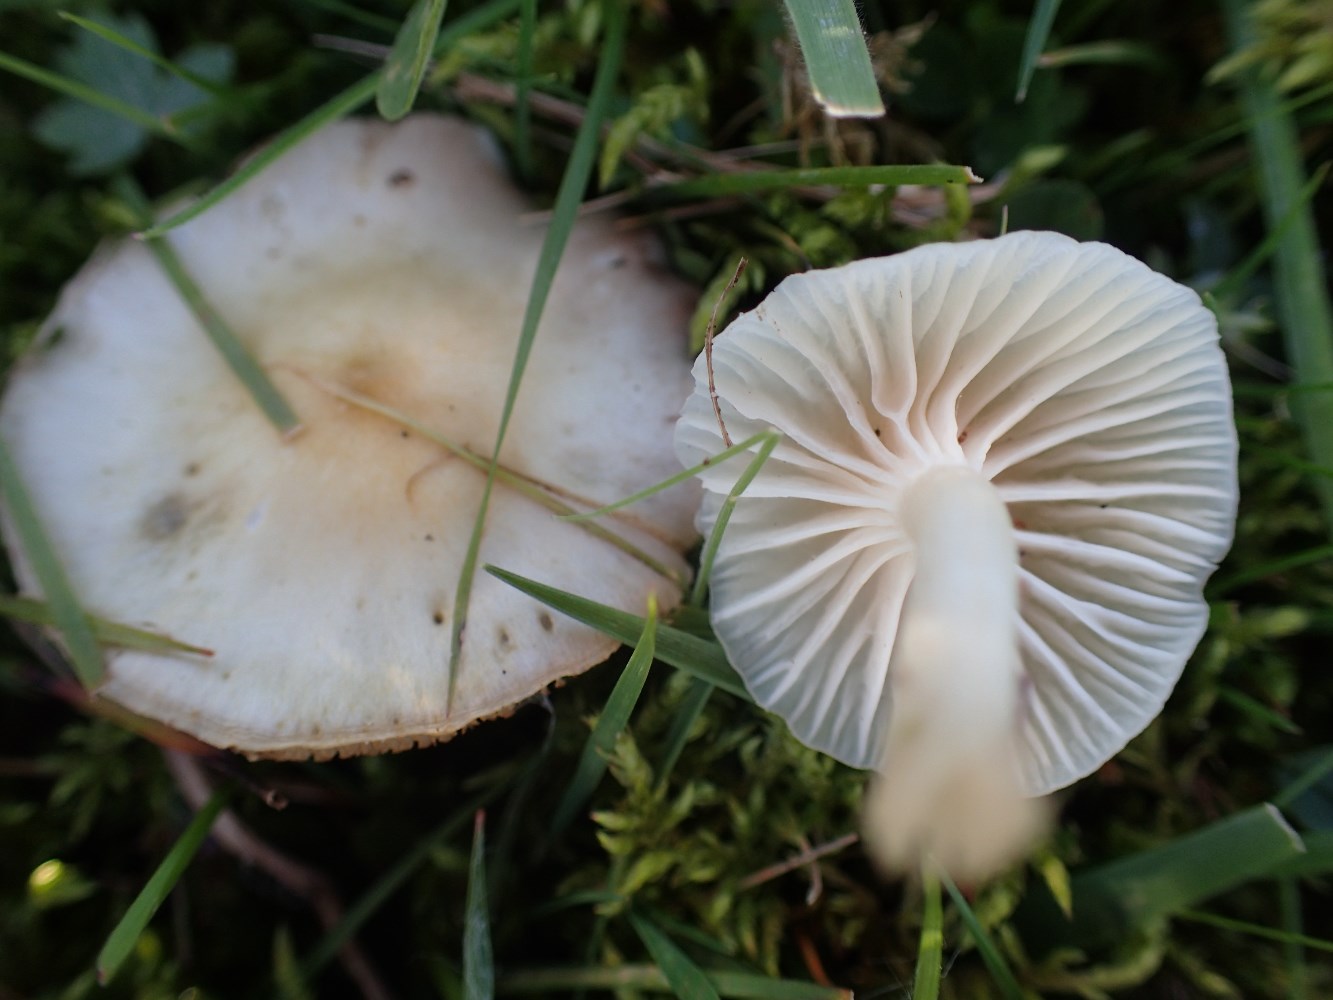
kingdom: Fungi
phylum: Basidiomycota
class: Agaricomycetes
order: Agaricales
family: Hygrophoraceae
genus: Cuphophyllus
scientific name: Cuphophyllus virgineus
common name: snehvid vokshat
